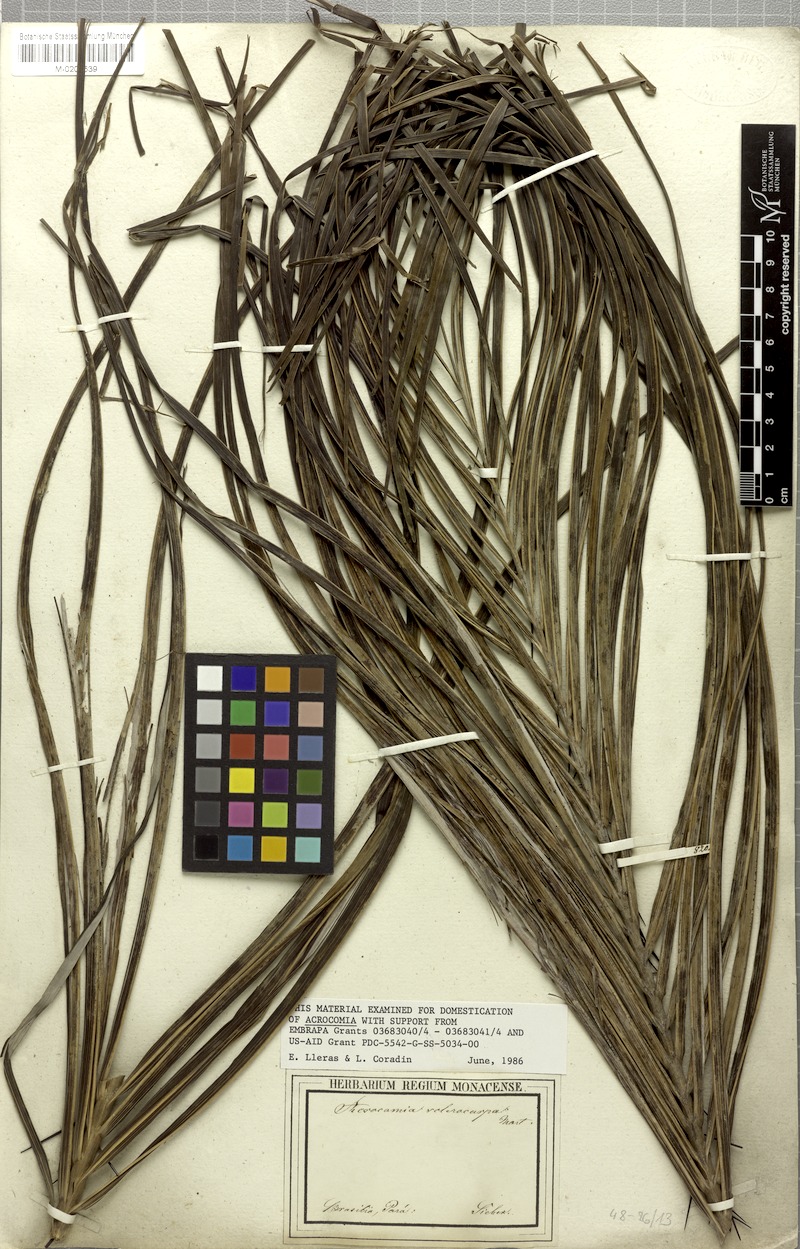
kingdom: Plantae
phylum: Tracheophyta
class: Liliopsida
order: Arecales
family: Arecaceae
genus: Acrocomia
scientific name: Acrocomia aculeata
